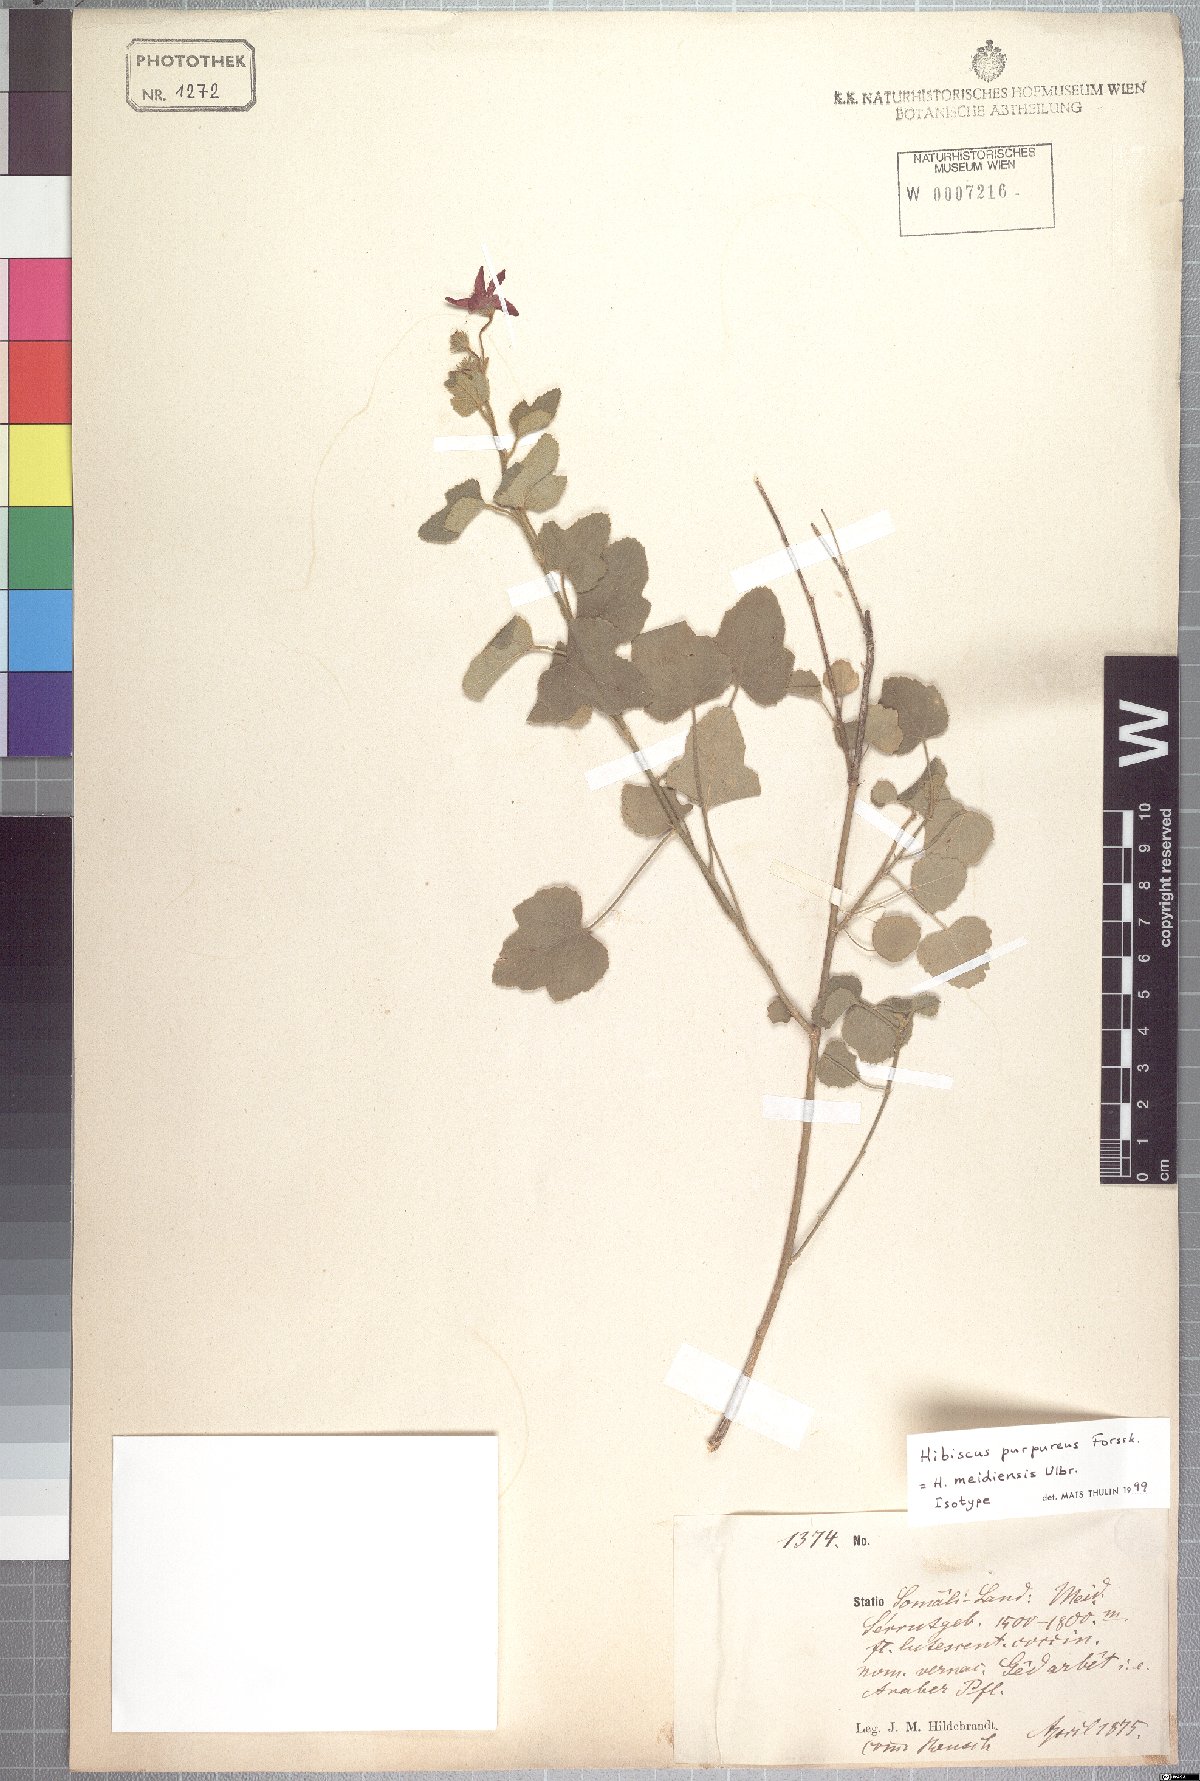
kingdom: Plantae
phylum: Tracheophyta
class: Magnoliopsida
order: Malvales
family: Malvaceae
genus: Hibiscus
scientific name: Hibiscus purpureus
